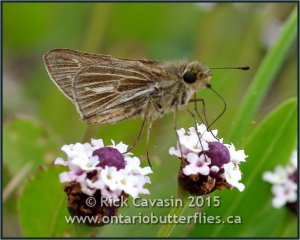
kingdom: Animalia
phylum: Arthropoda
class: Insecta
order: Lepidoptera
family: Hesperiidae
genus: Panoquina
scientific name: Panoquina panoquin
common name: Salt Marsh Skipper
